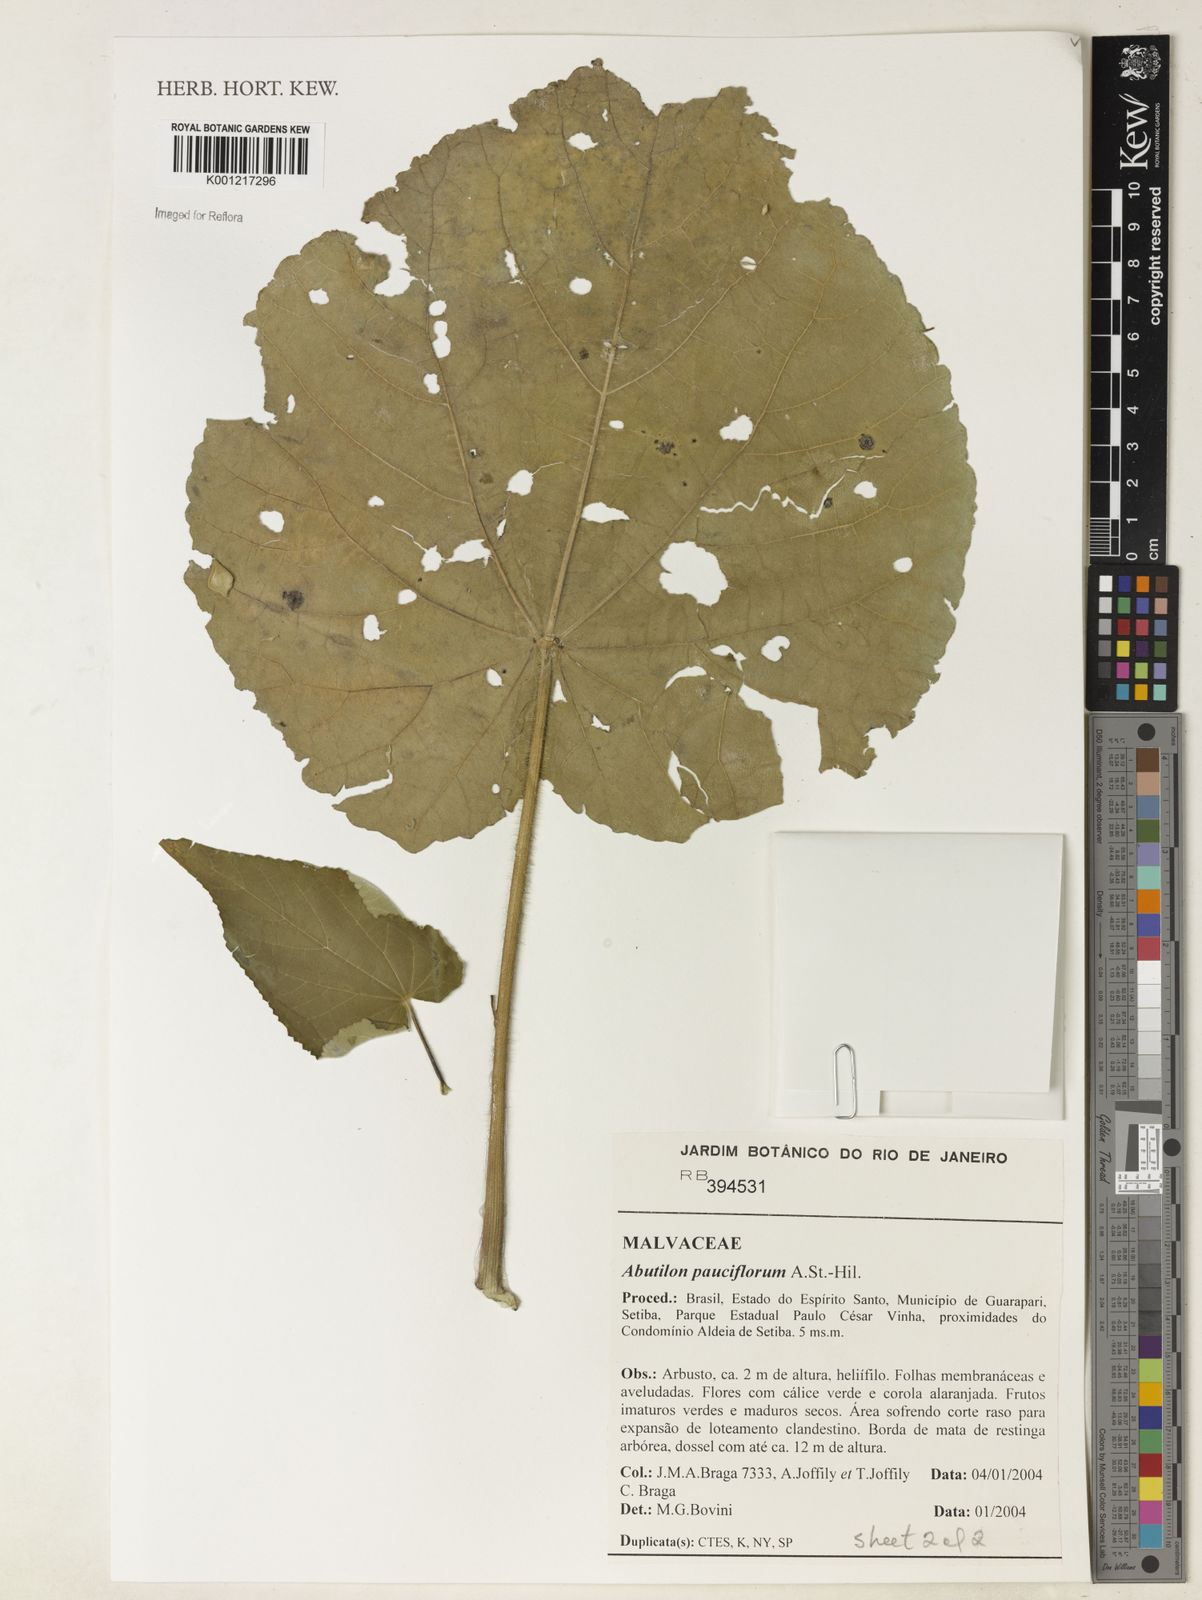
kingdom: Plantae
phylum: Tracheophyta
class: Magnoliopsida
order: Malvales
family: Malvaceae
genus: Callianthe
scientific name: Callianthe pauciflora
